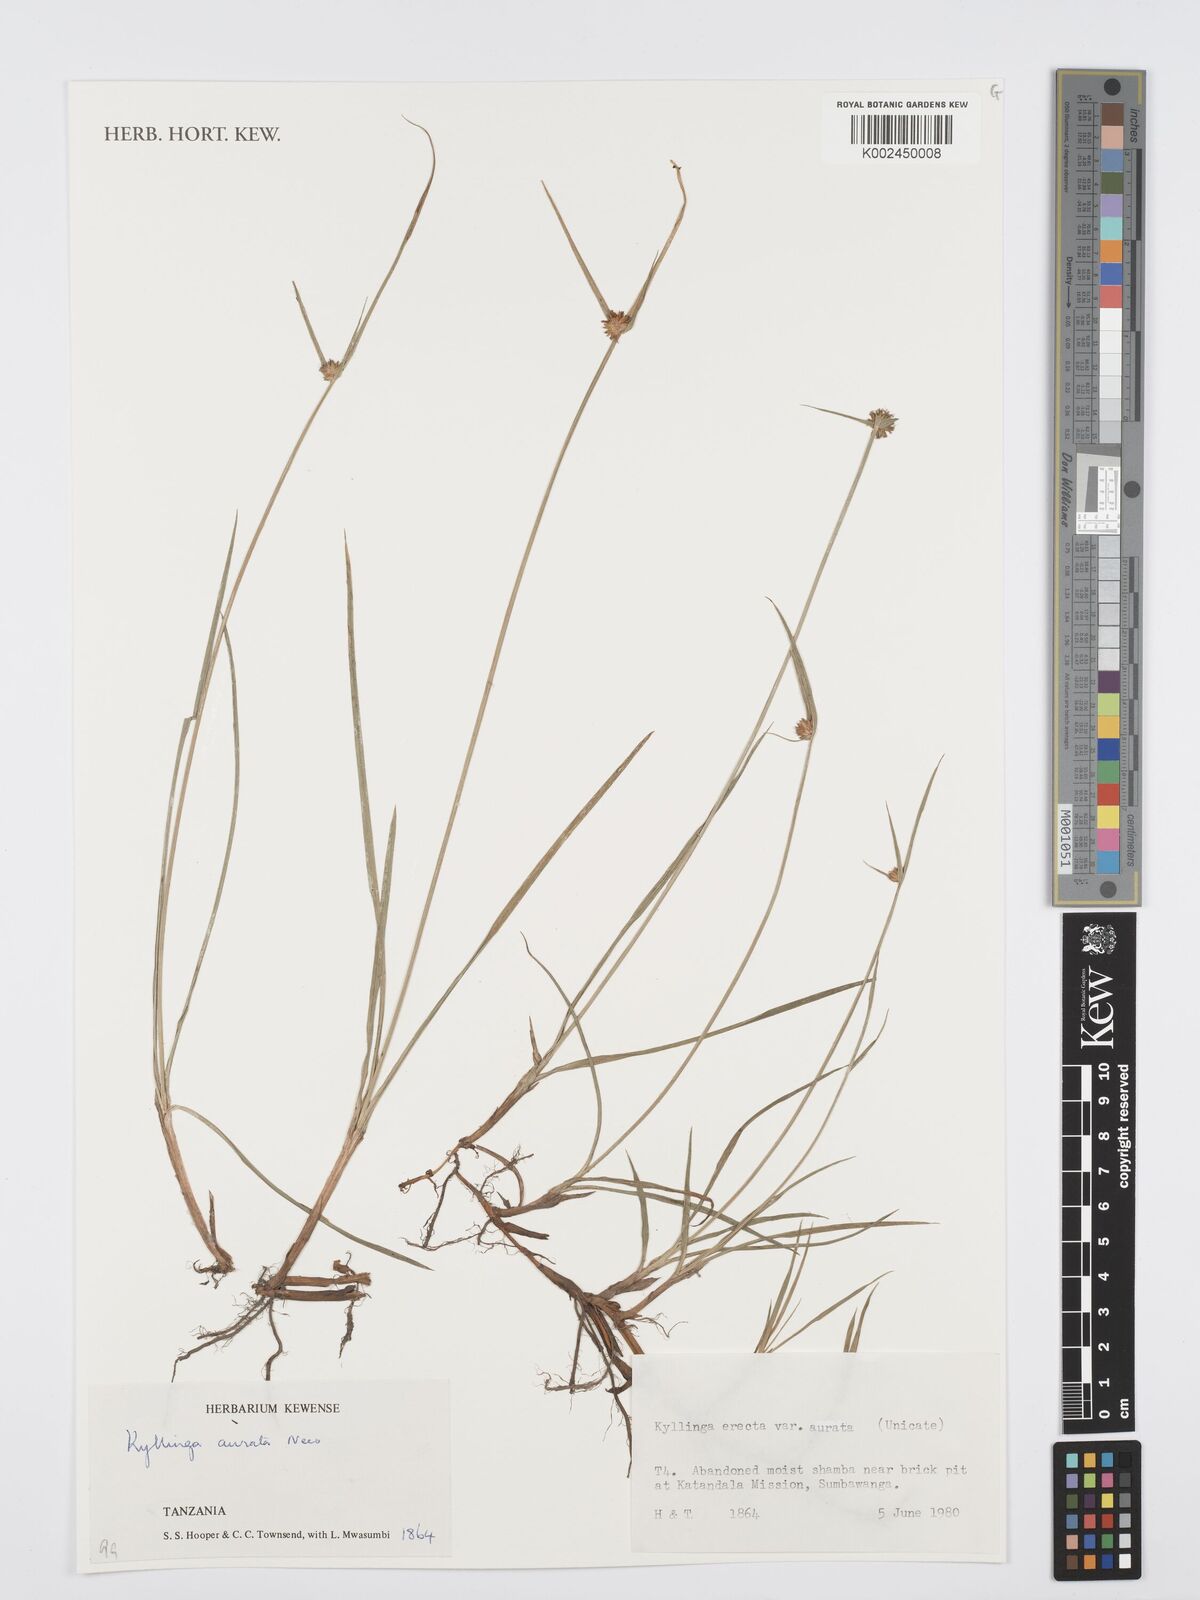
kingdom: Plantae
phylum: Tracheophyta
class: Liliopsida
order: Poales
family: Cyperaceae
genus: Cyperus
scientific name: Cyperus brevifolius
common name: Globe kyllinga
